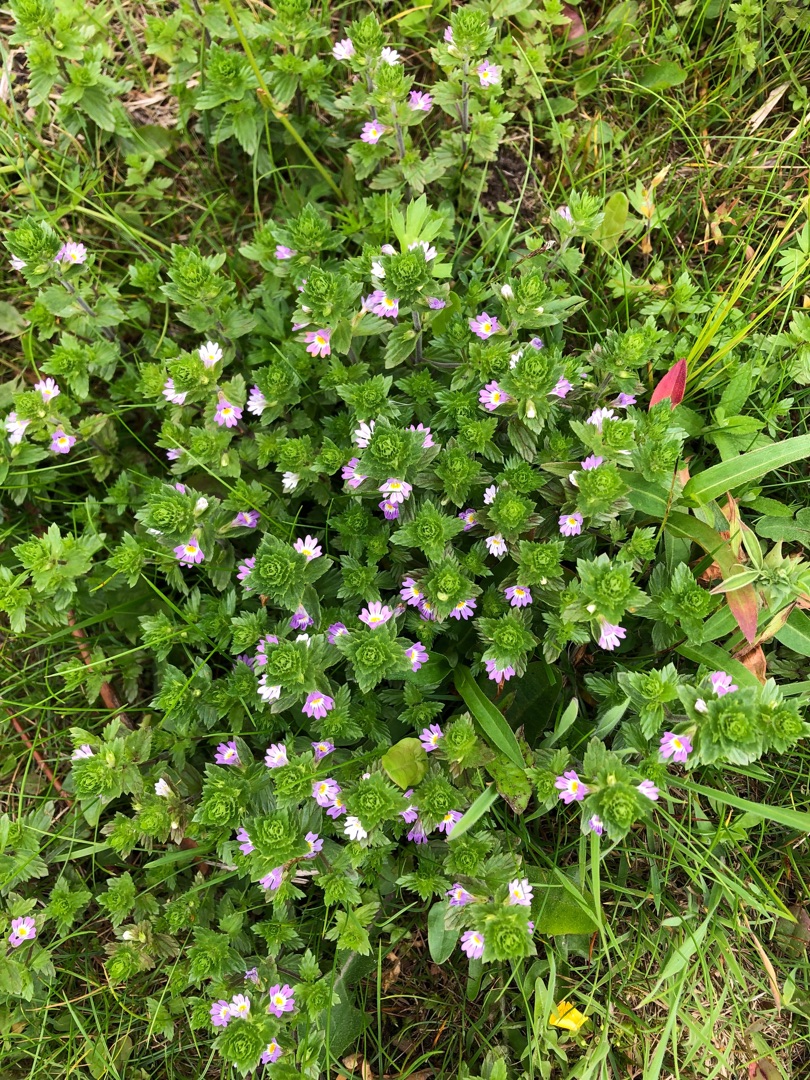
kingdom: Plantae
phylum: Tracheophyta
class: Magnoliopsida
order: Lamiales
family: Orobanchaceae
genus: Euphrasia
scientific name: Euphrasia stricta
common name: Spids øjentrøst
